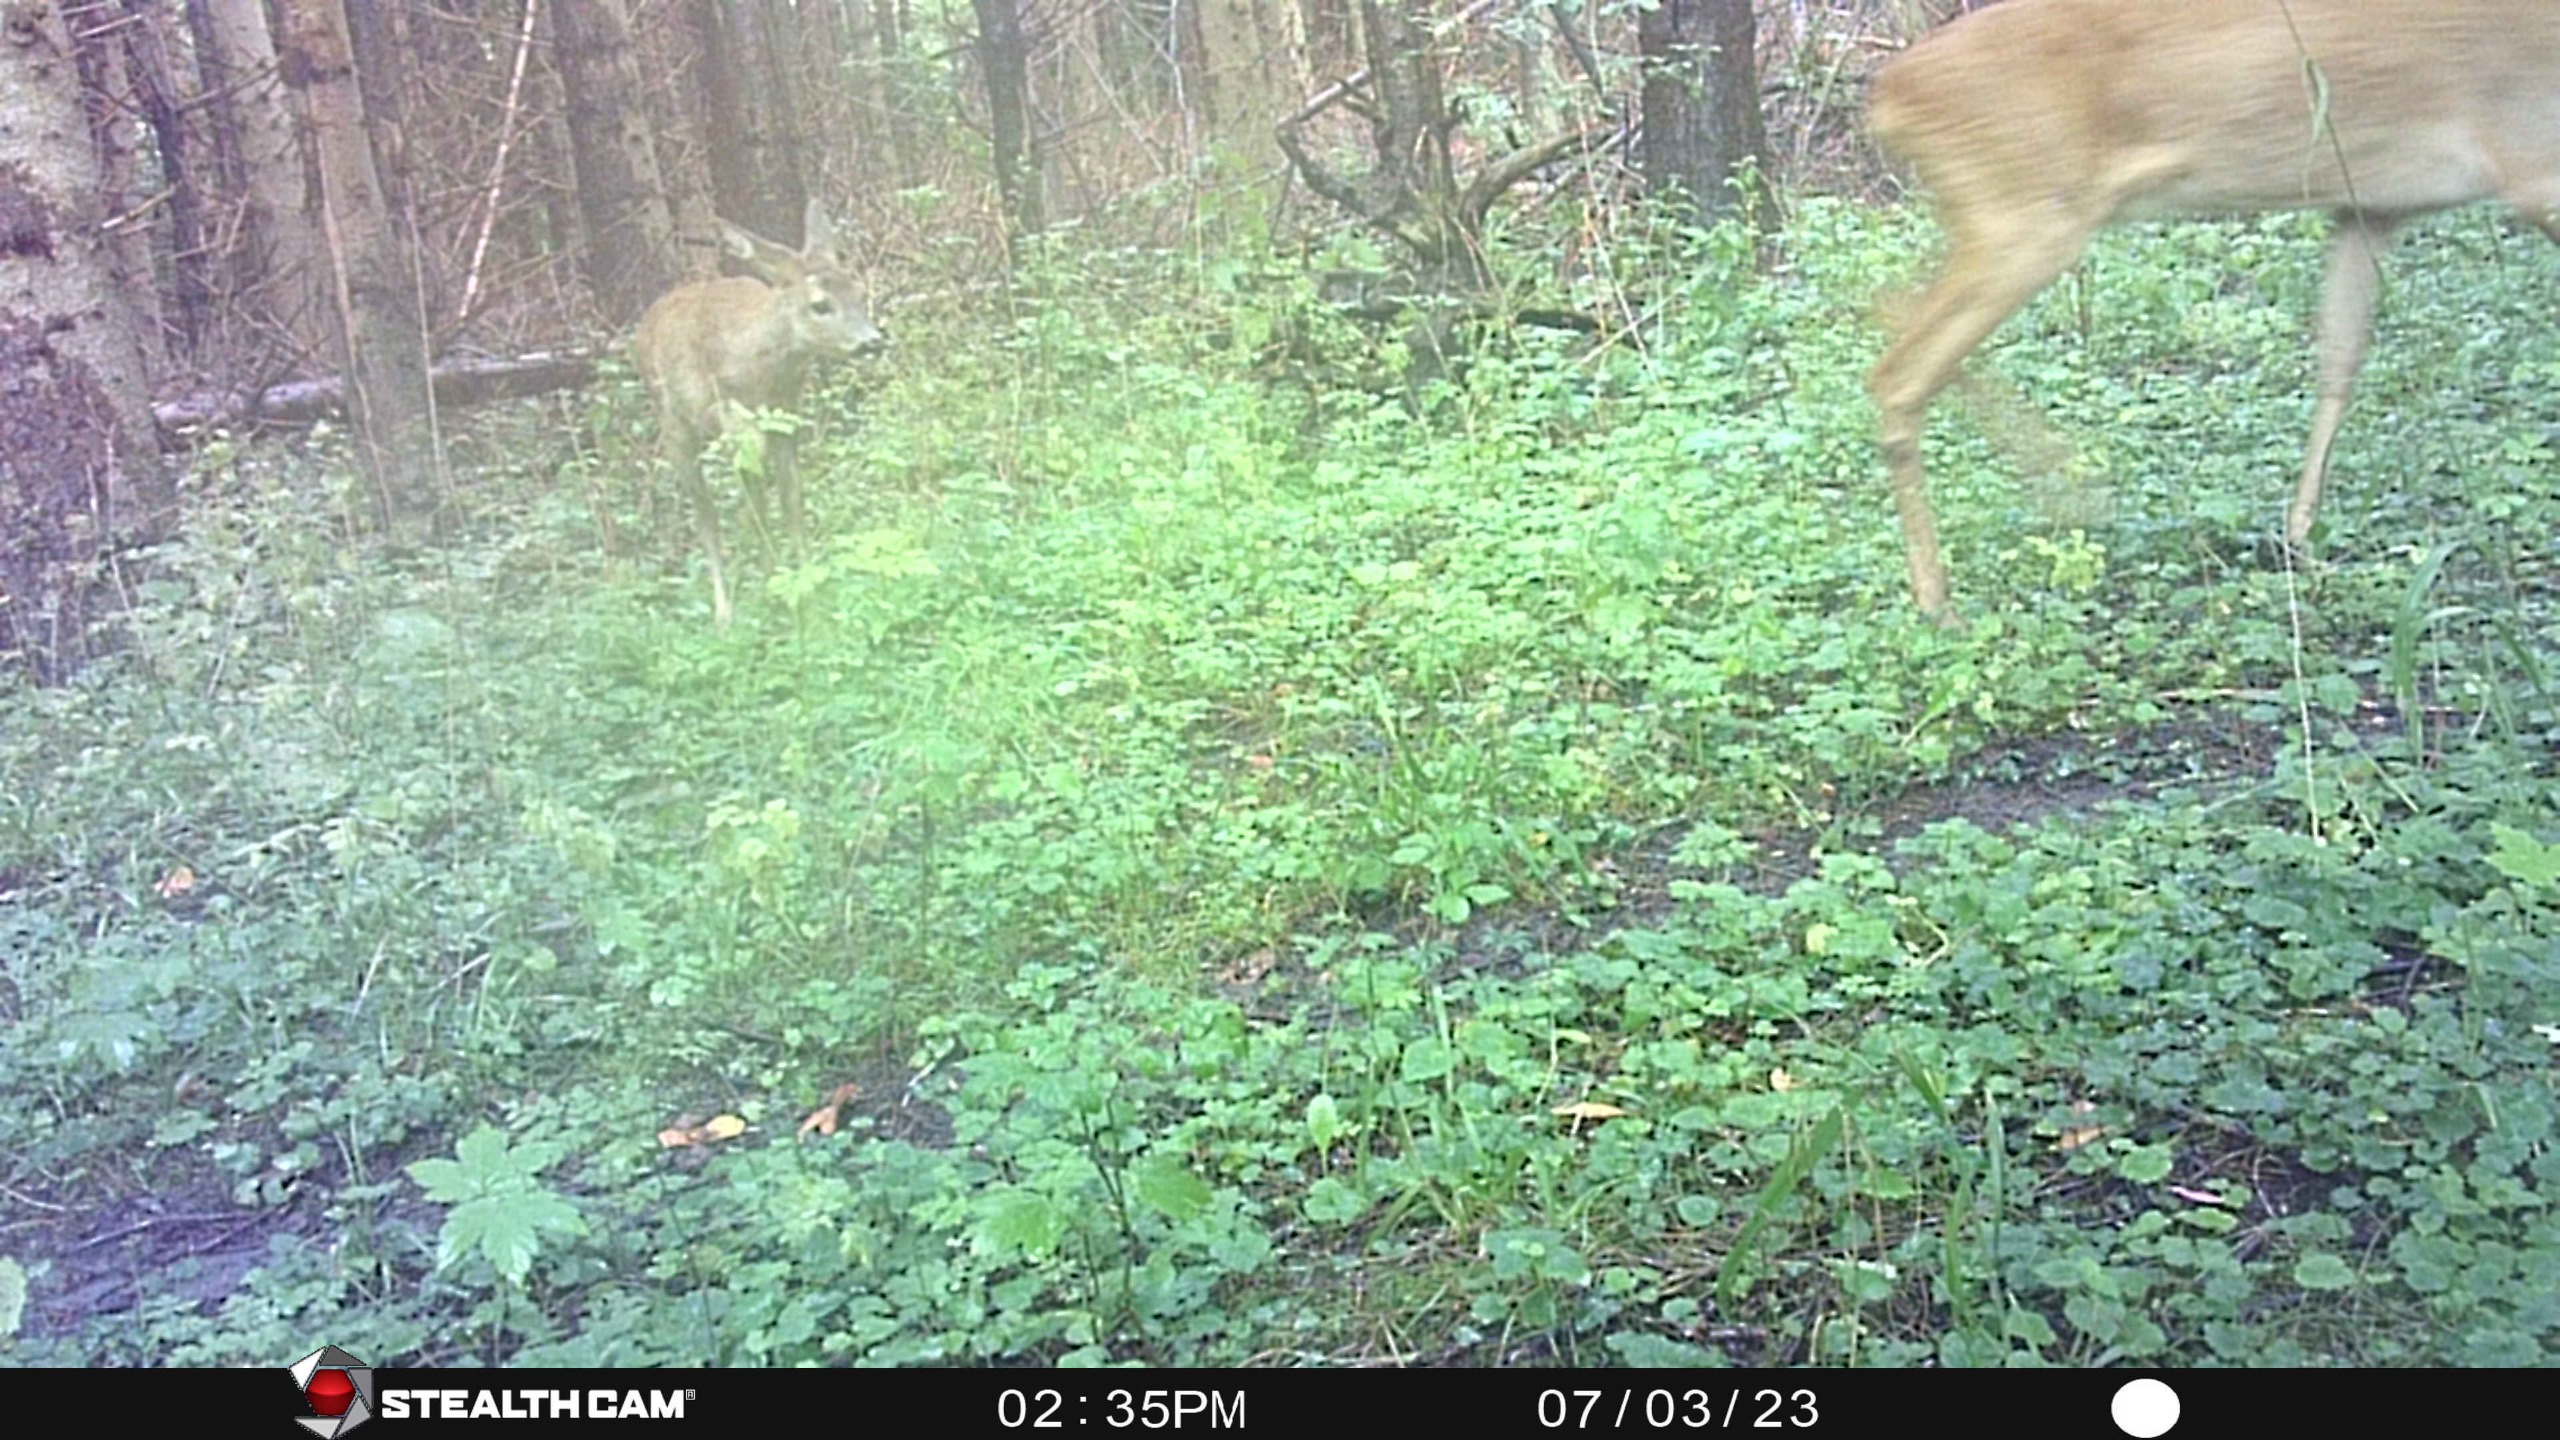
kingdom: Animalia
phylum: Chordata
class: Mammalia
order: Artiodactyla
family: Cervidae
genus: Capreolus
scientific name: Capreolus capreolus
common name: Rådyr
